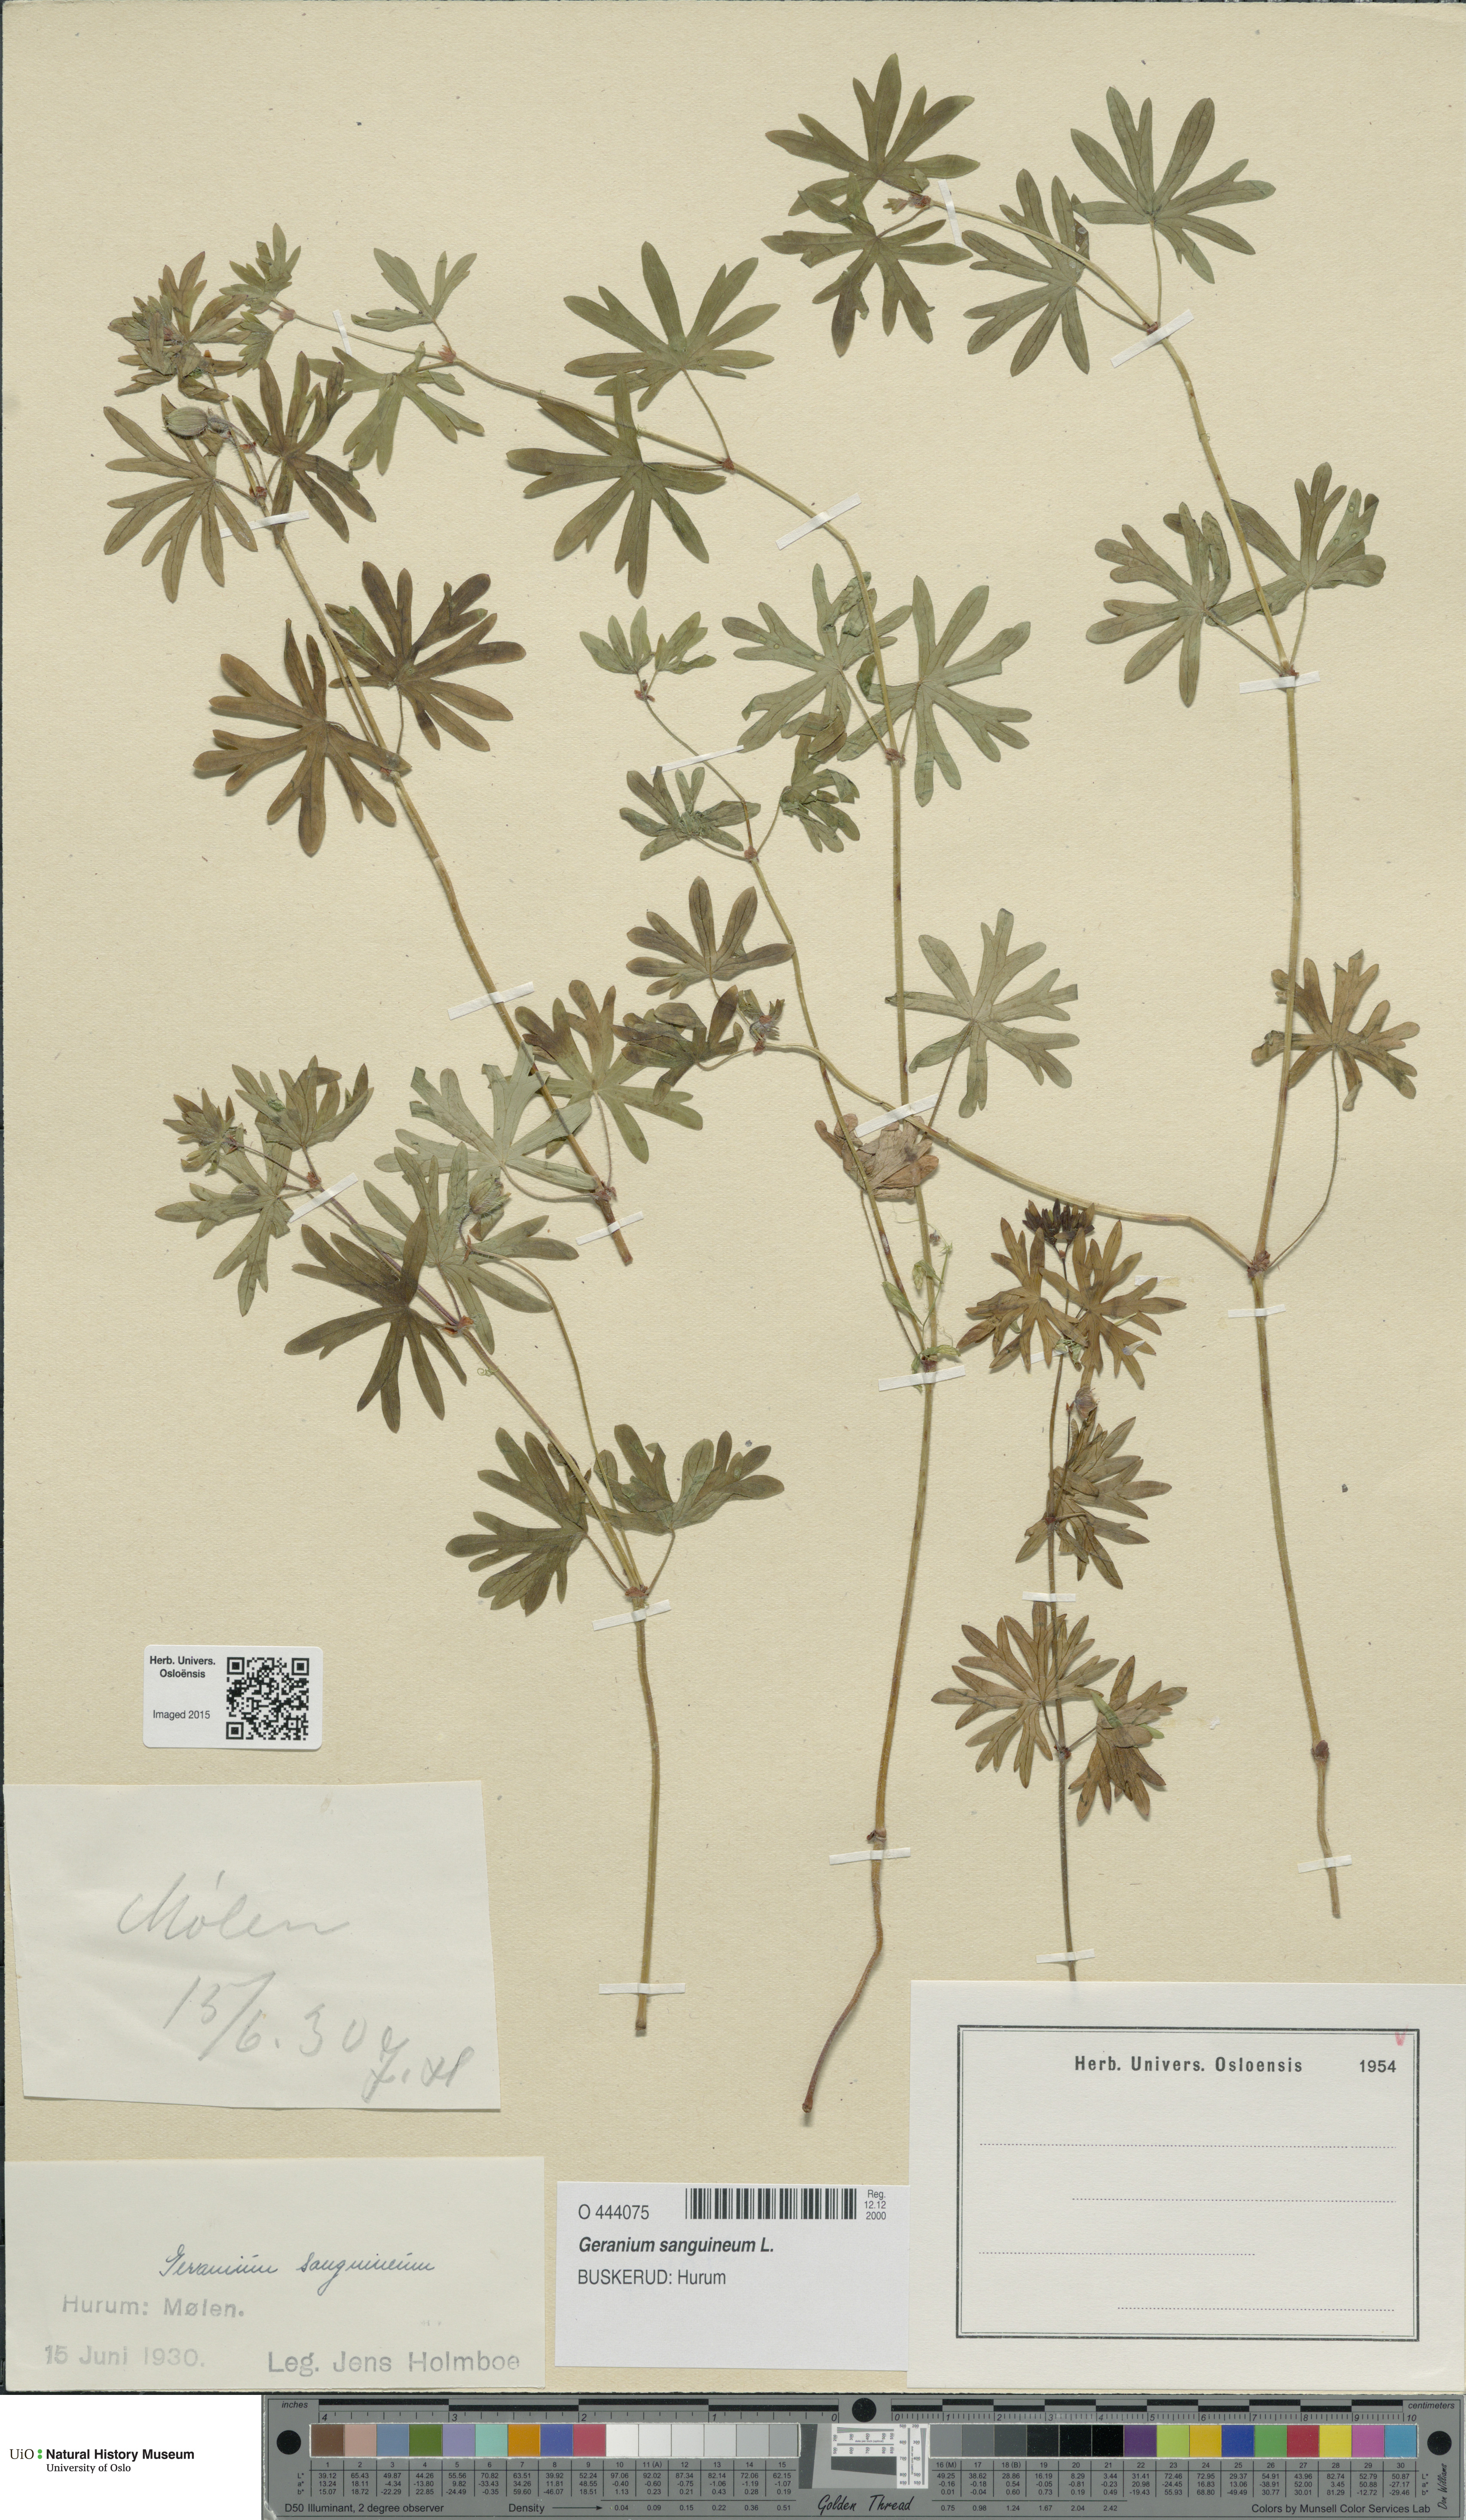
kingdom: Plantae
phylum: Tracheophyta
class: Magnoliopsida
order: Geraniales
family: Geraniaceae
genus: Geranium
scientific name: Geranium sanguineum
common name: Bloody crane's-bill
